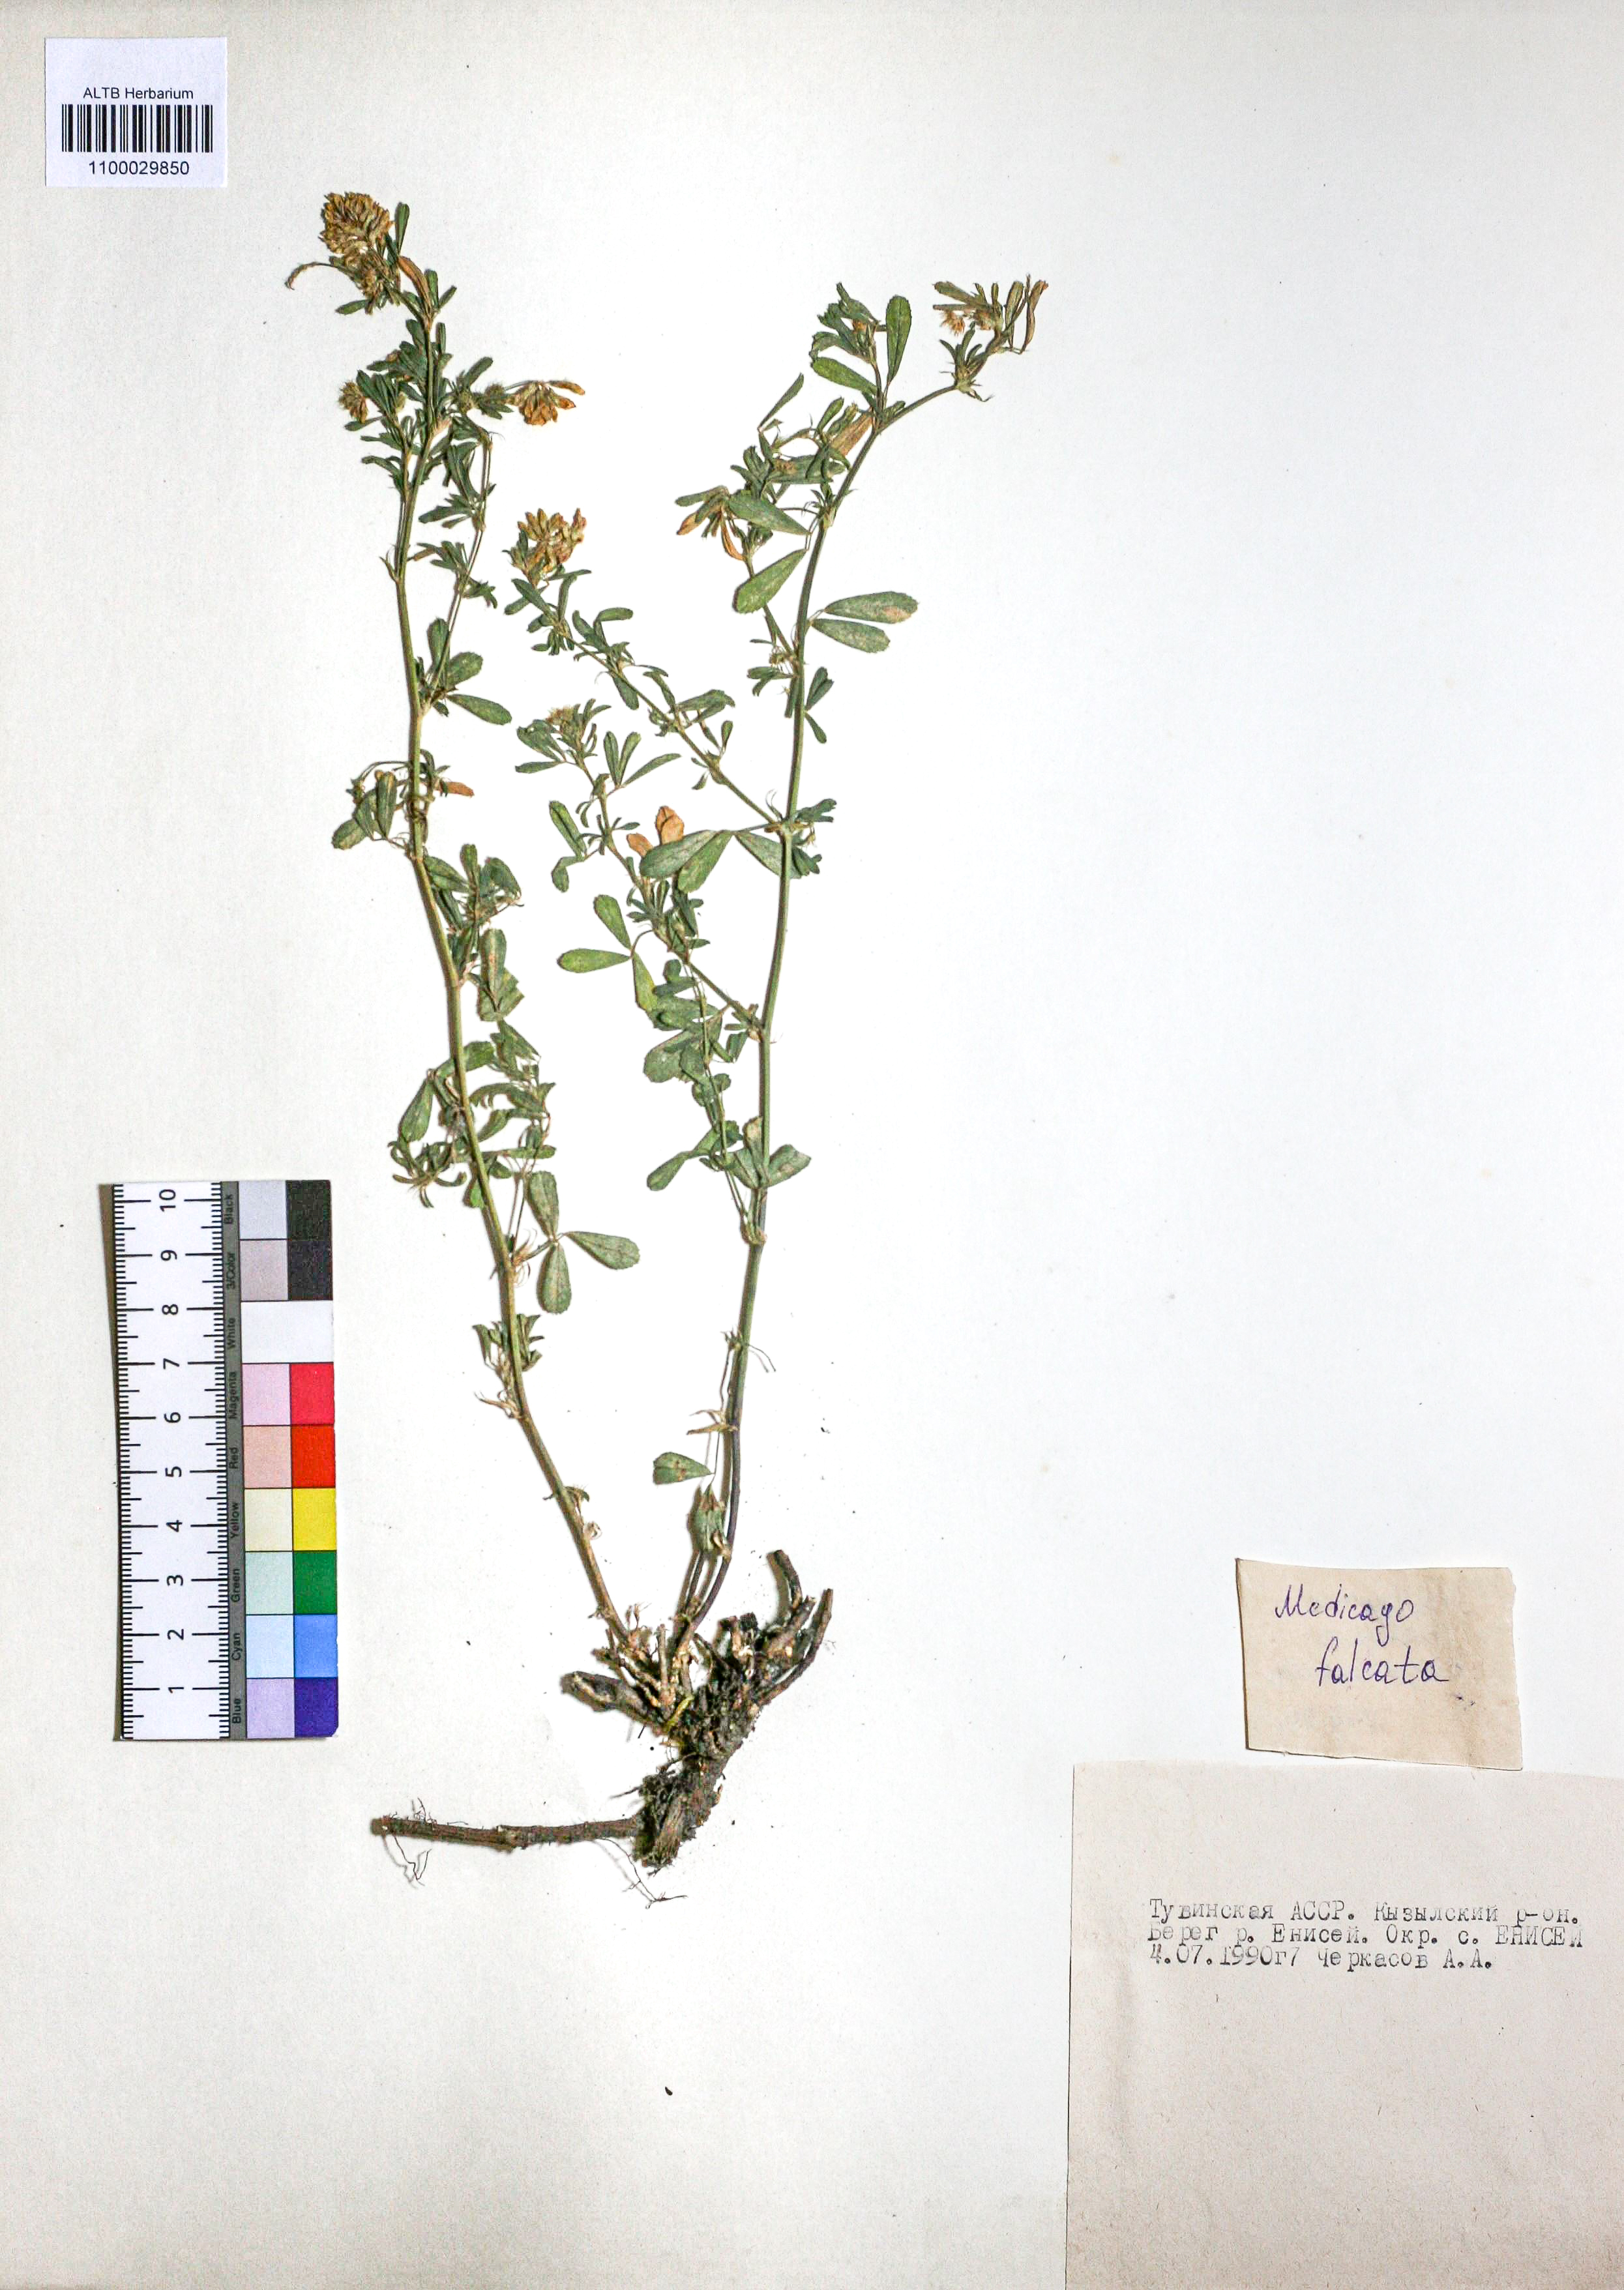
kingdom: Plantae
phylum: Tracheophyta
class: Magnoliopsida
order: Fabales
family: Fabaceae
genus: Medicago
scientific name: Medicago falcata
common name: Sickle medick
